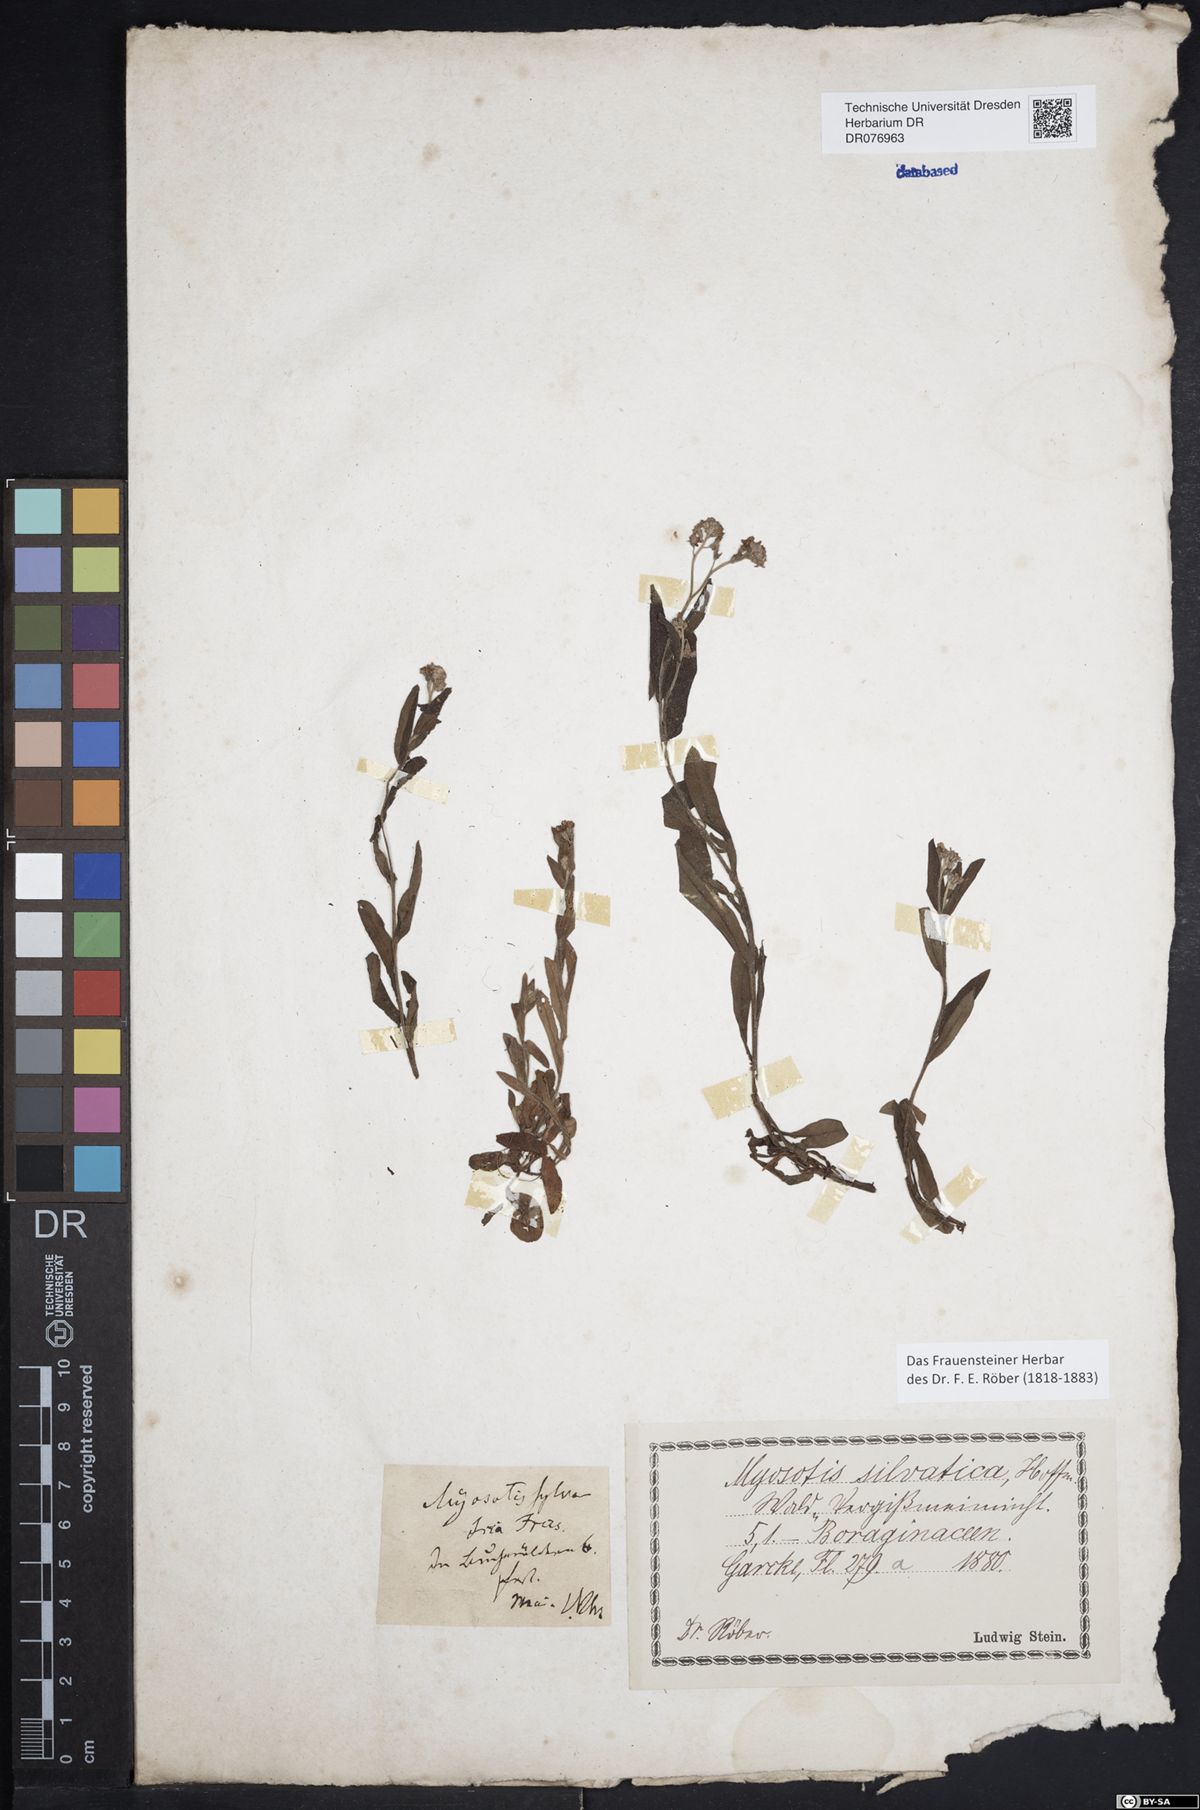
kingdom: Plantae
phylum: Tracheophyta
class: Magnoliopsida
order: Boraginales
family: Boraginaceae
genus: Myosotis
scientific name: Myosotis sylvatica
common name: Wood forget-me-not
